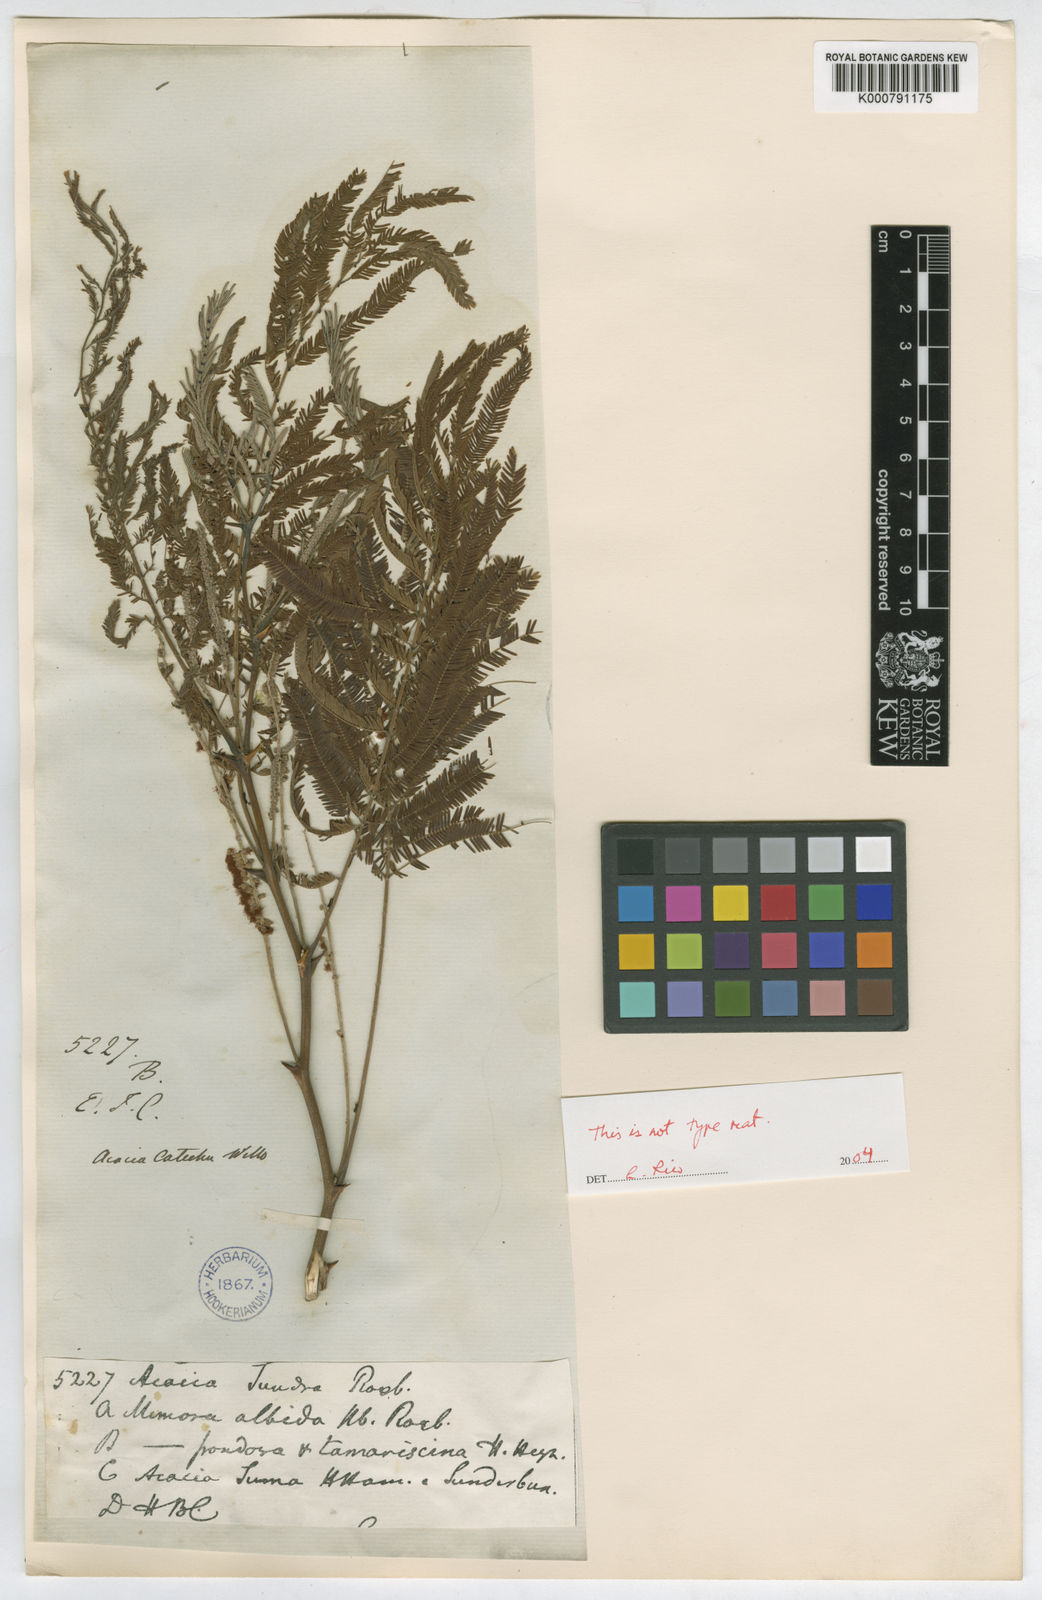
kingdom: Plantae
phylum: Tracheophyta
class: Magnoliopsida
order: Fabales
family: Fabaceae
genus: Senegalia
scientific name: Senegalia chundra
